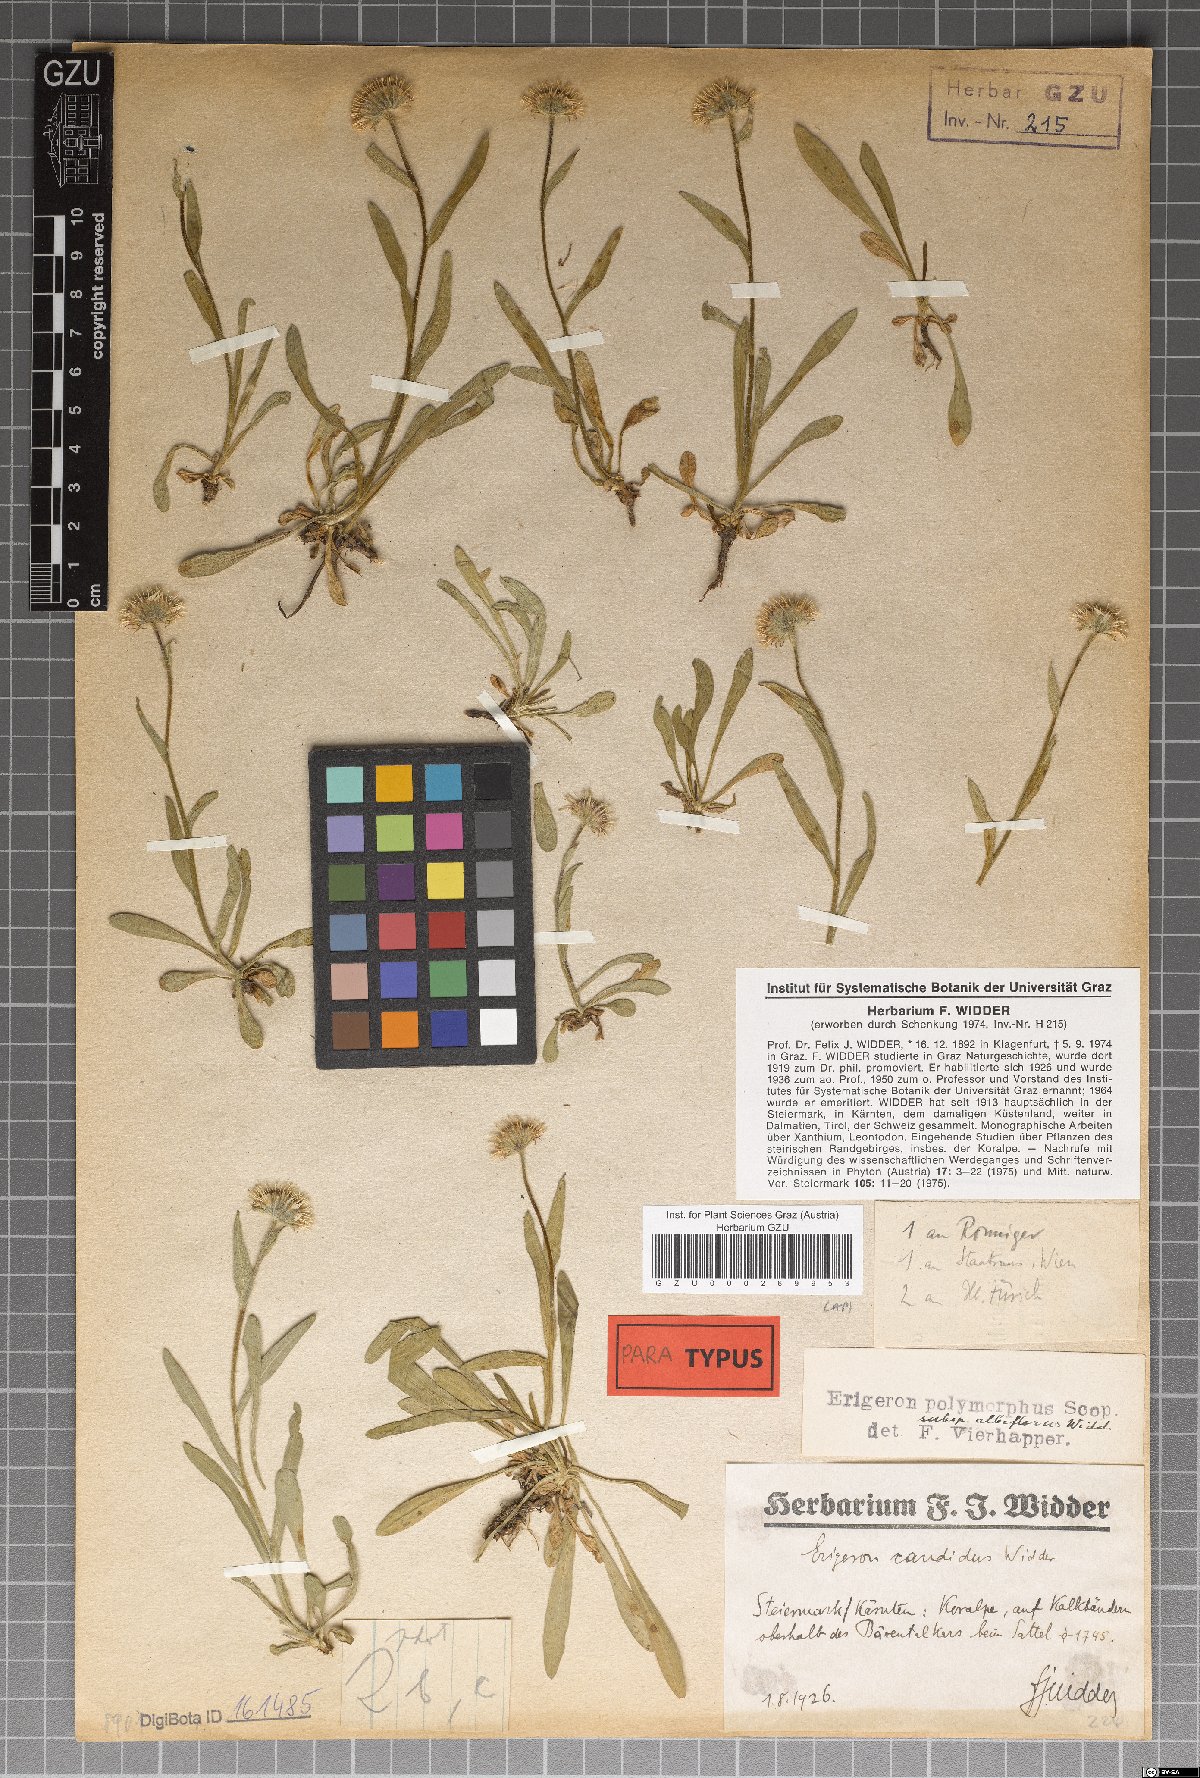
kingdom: Plantae
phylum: Tracheophyta
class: Magnoliopsida
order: Asterales
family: Asteraceae
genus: Erigeron
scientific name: Erigeron glabratus
